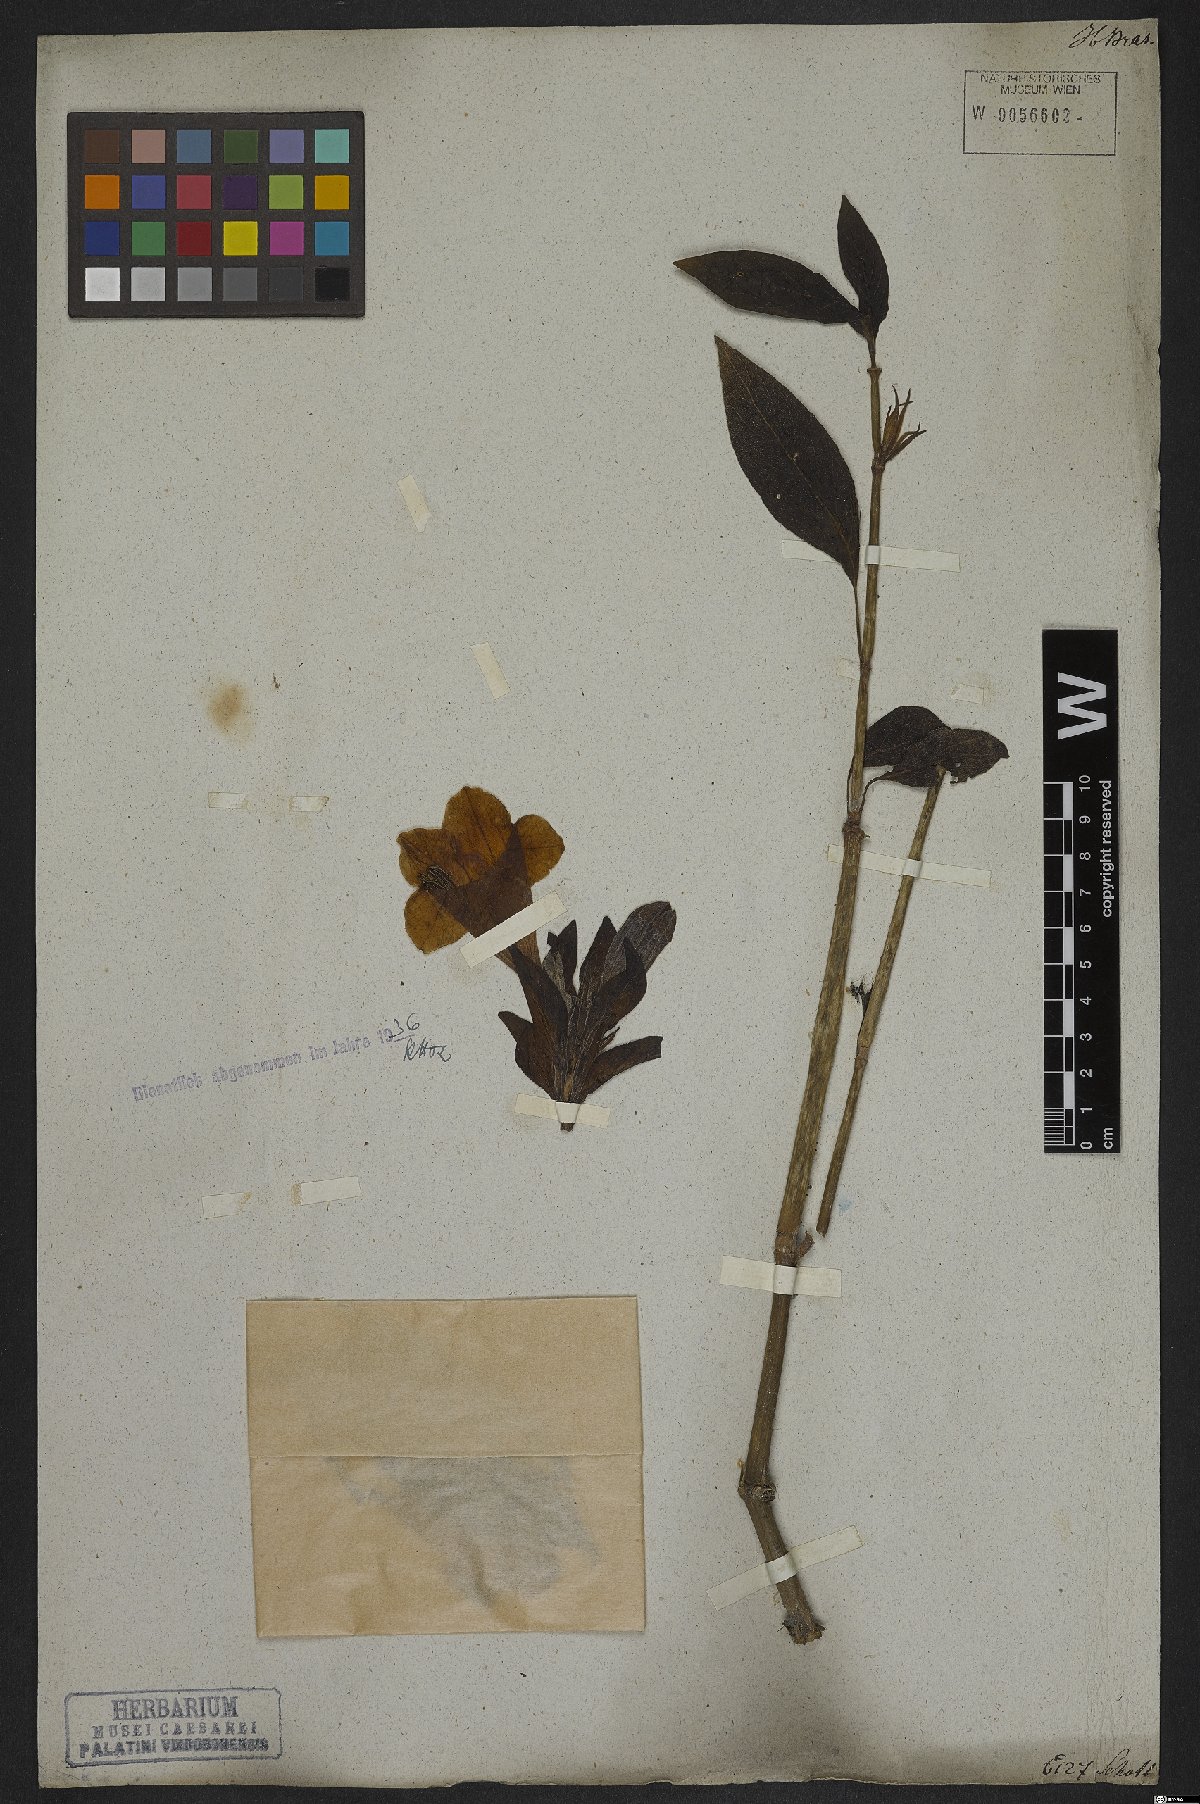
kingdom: Plantae
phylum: Tracheophyta
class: Magnoliopsida
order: Lamiales
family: Acanthaceae
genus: Ruellia
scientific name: Ruellia macrantha
